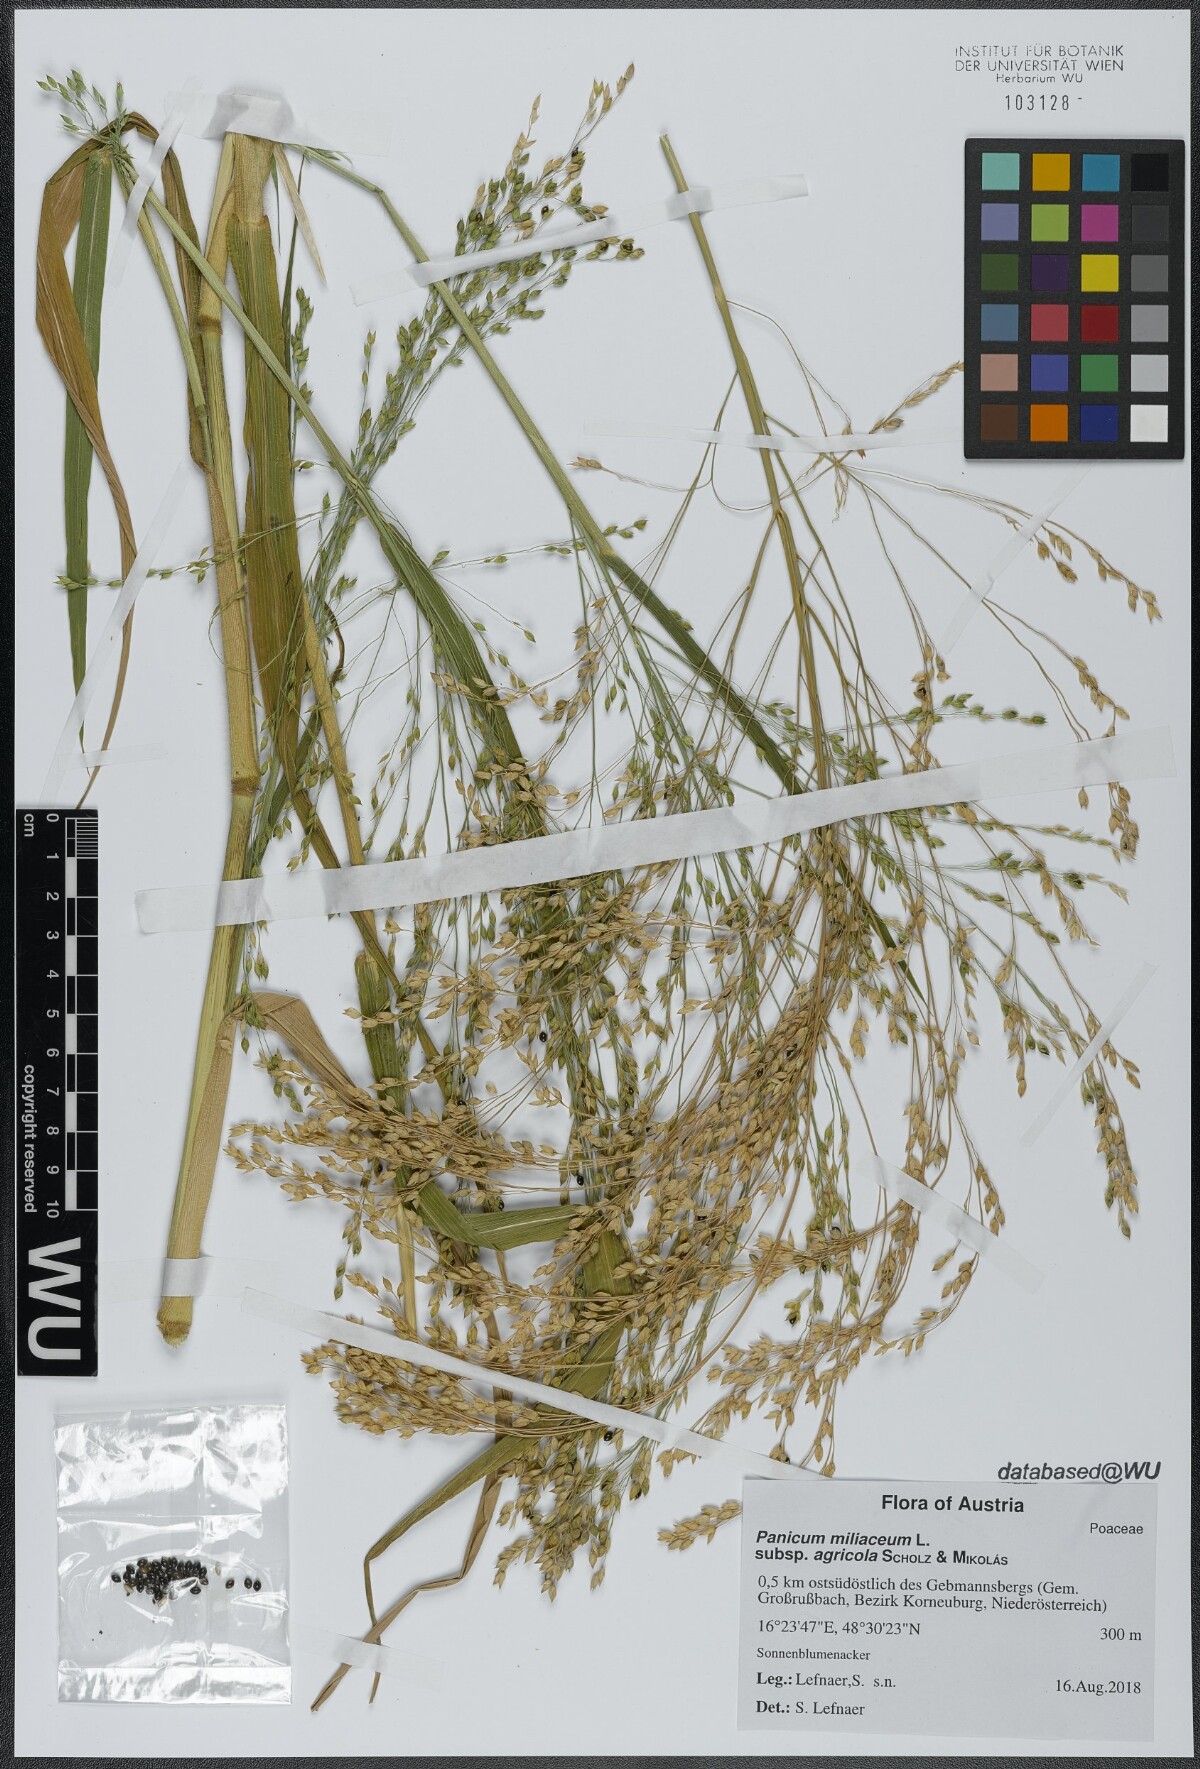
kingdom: Plantae
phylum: Tracheophyta
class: Liliopsida
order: Poales
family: Poaceae
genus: Panicum
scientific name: Panicum miliaceum
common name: Common millet
